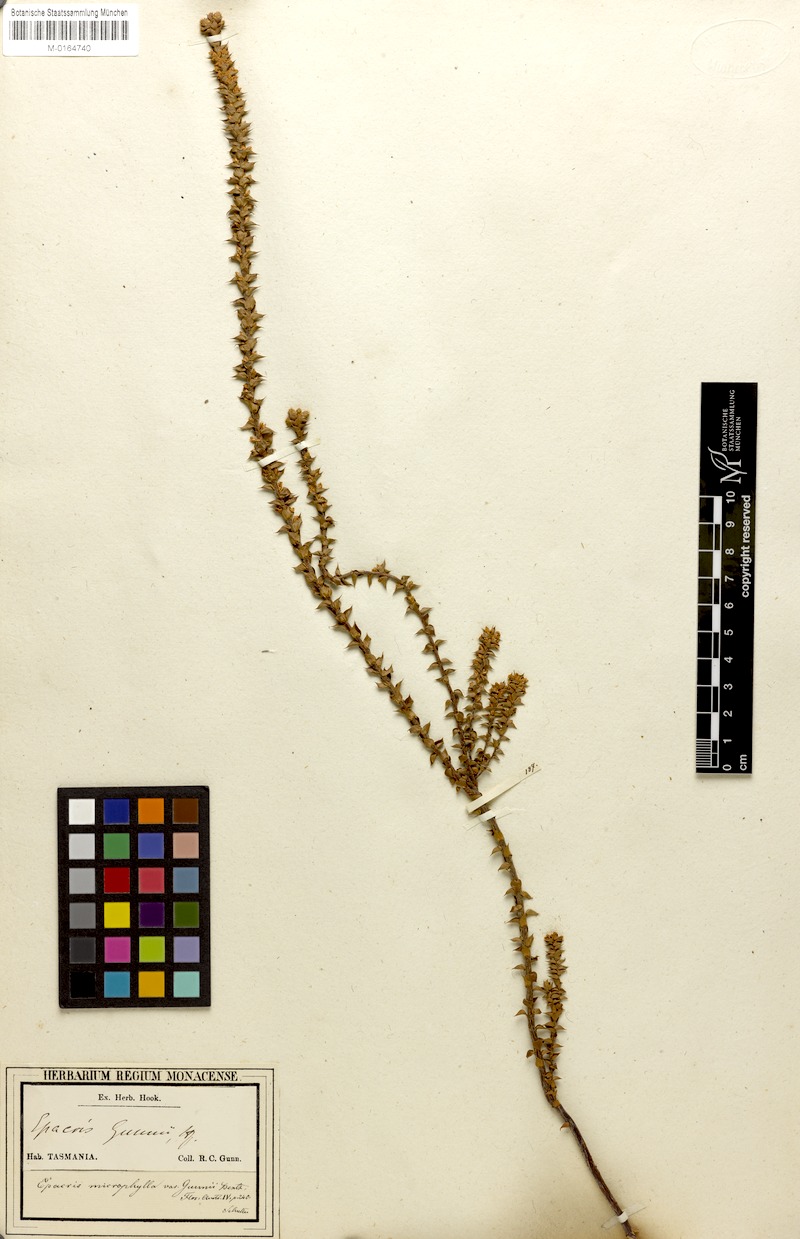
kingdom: Plantae
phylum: Tracheophyta
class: Magnoliopsida
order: Ericales
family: Ericaceae
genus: Epacris
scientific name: Epacris microphylla
